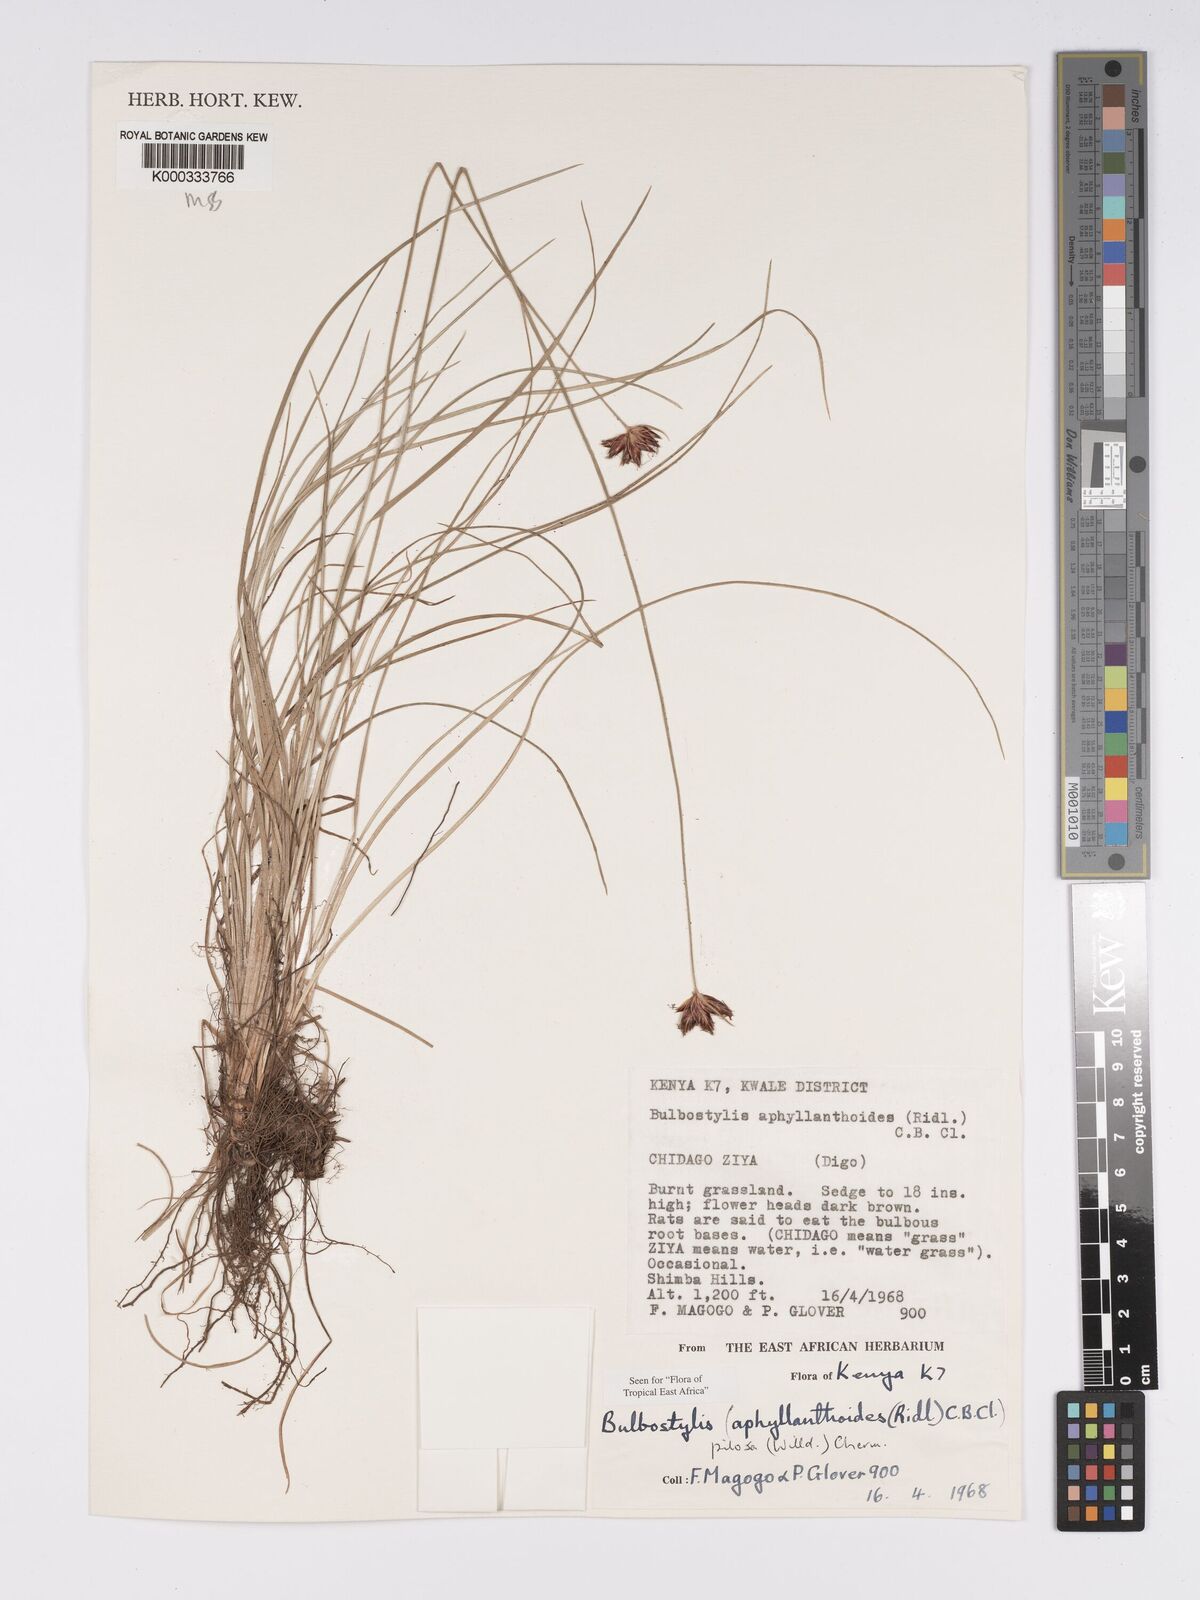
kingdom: Plantae
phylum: Tracheophyta
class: Liliopsida
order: Poales
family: Cyperaceae
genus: Bulbostylis
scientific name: Bulbostylis pilosa
